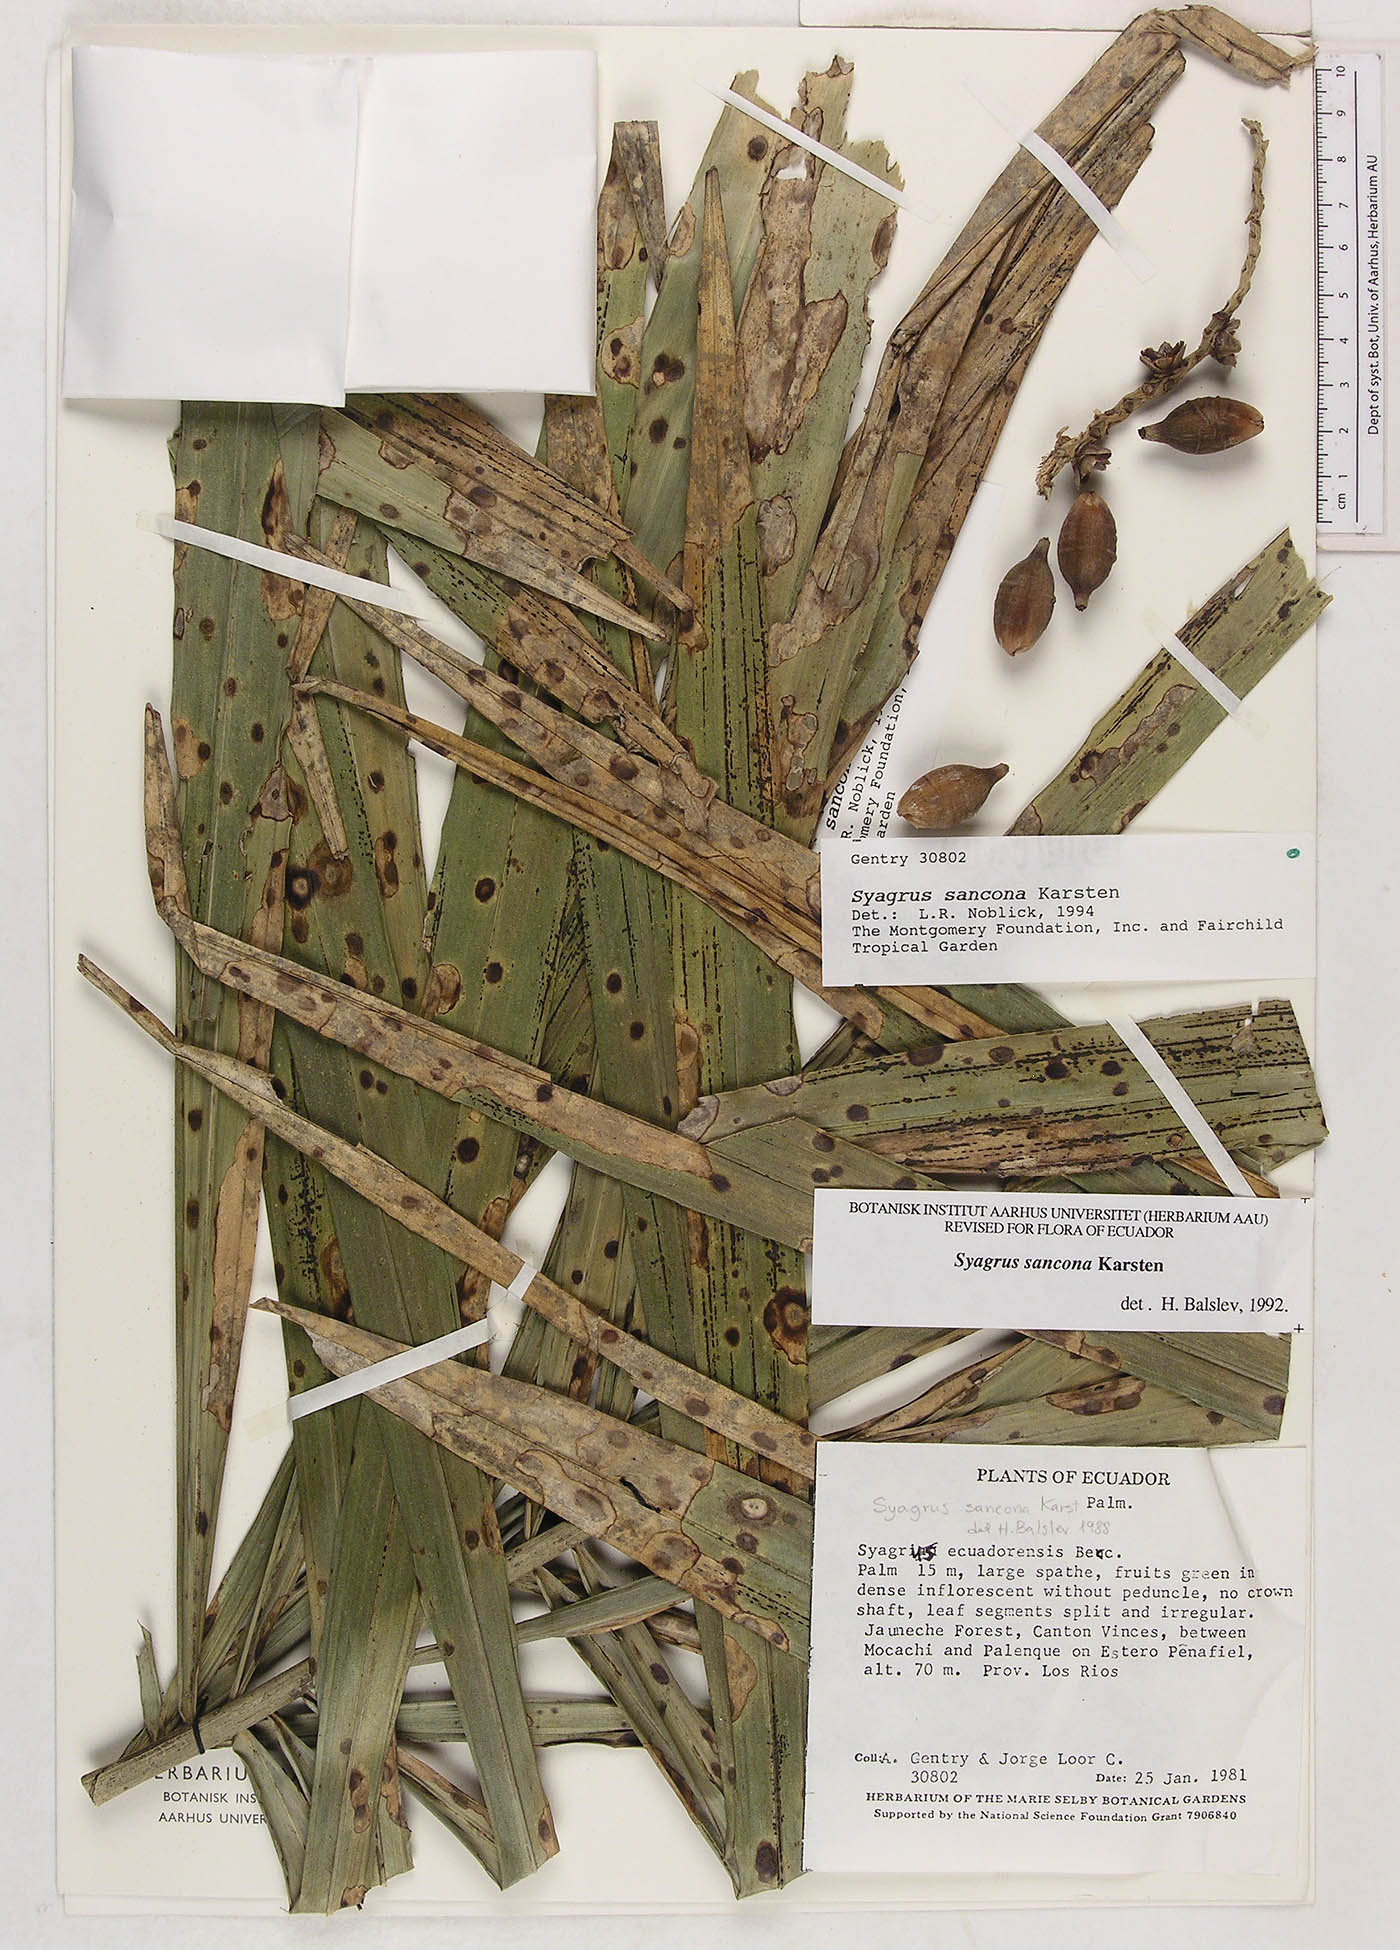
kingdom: Plantae
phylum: Tracheophyta
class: Liliopsida
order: Arecales
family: Arecaceae
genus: Syagrus
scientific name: Syagrus sancona
